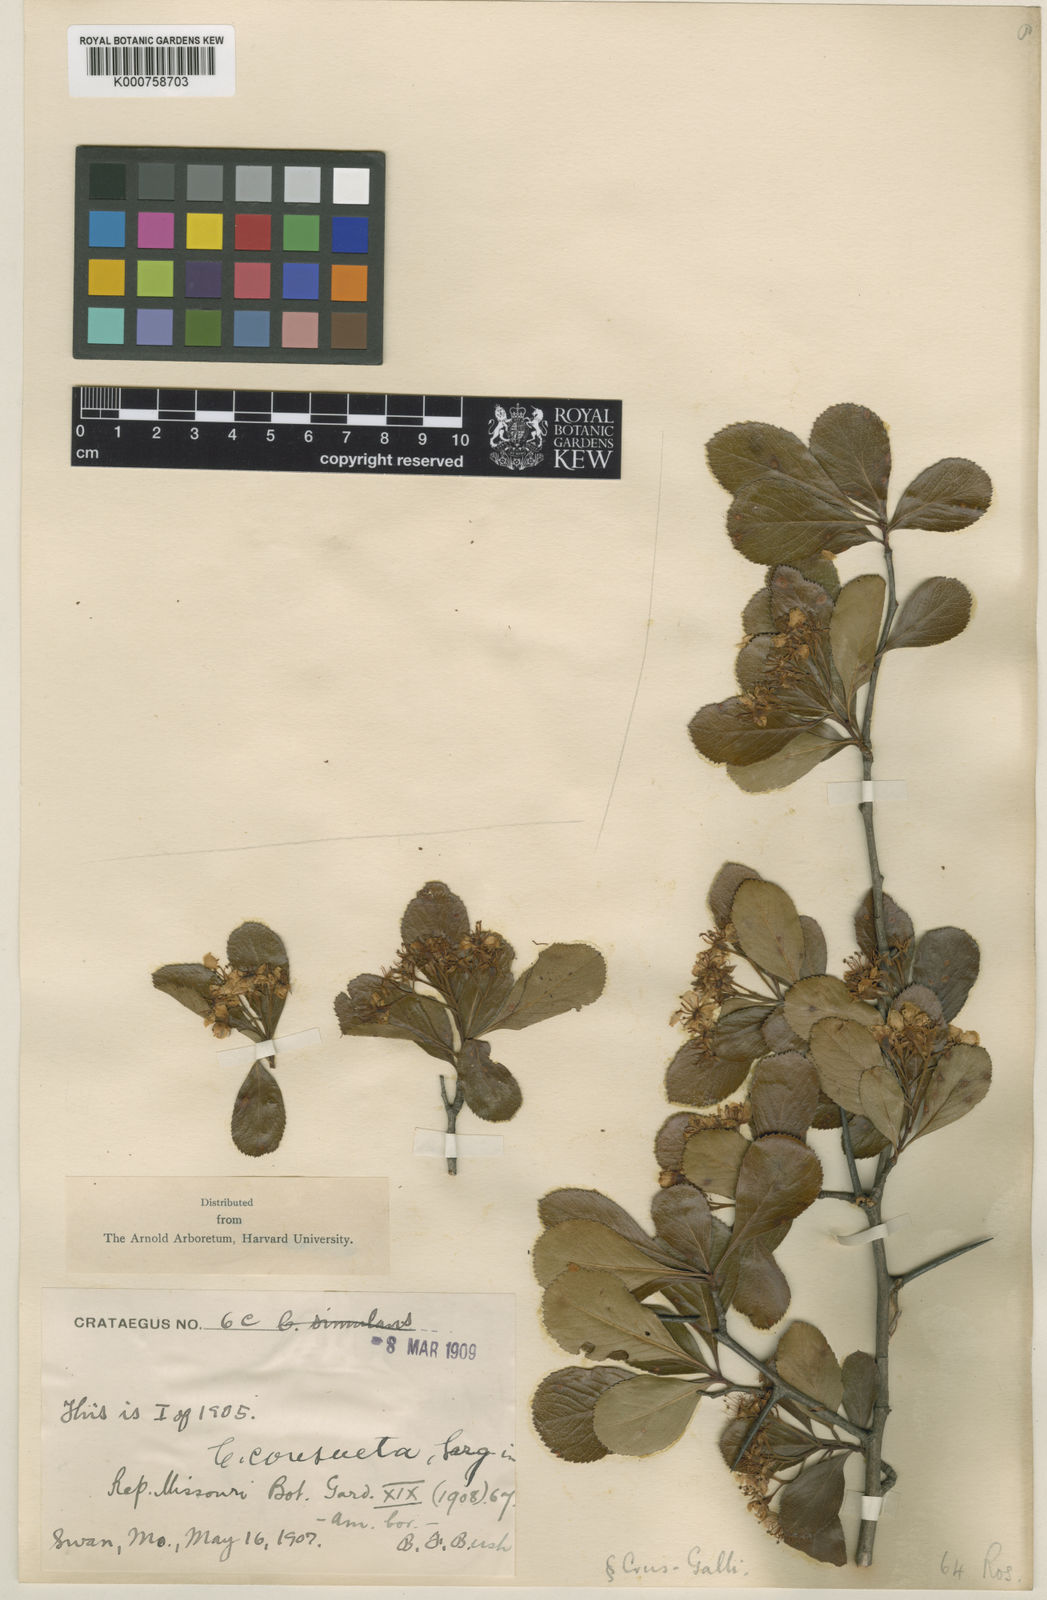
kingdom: Plantae
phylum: Tracheophyta
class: Magnoliopsida
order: Rosales
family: Rosaceae
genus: Crataegus
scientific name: Crataegus consueta
